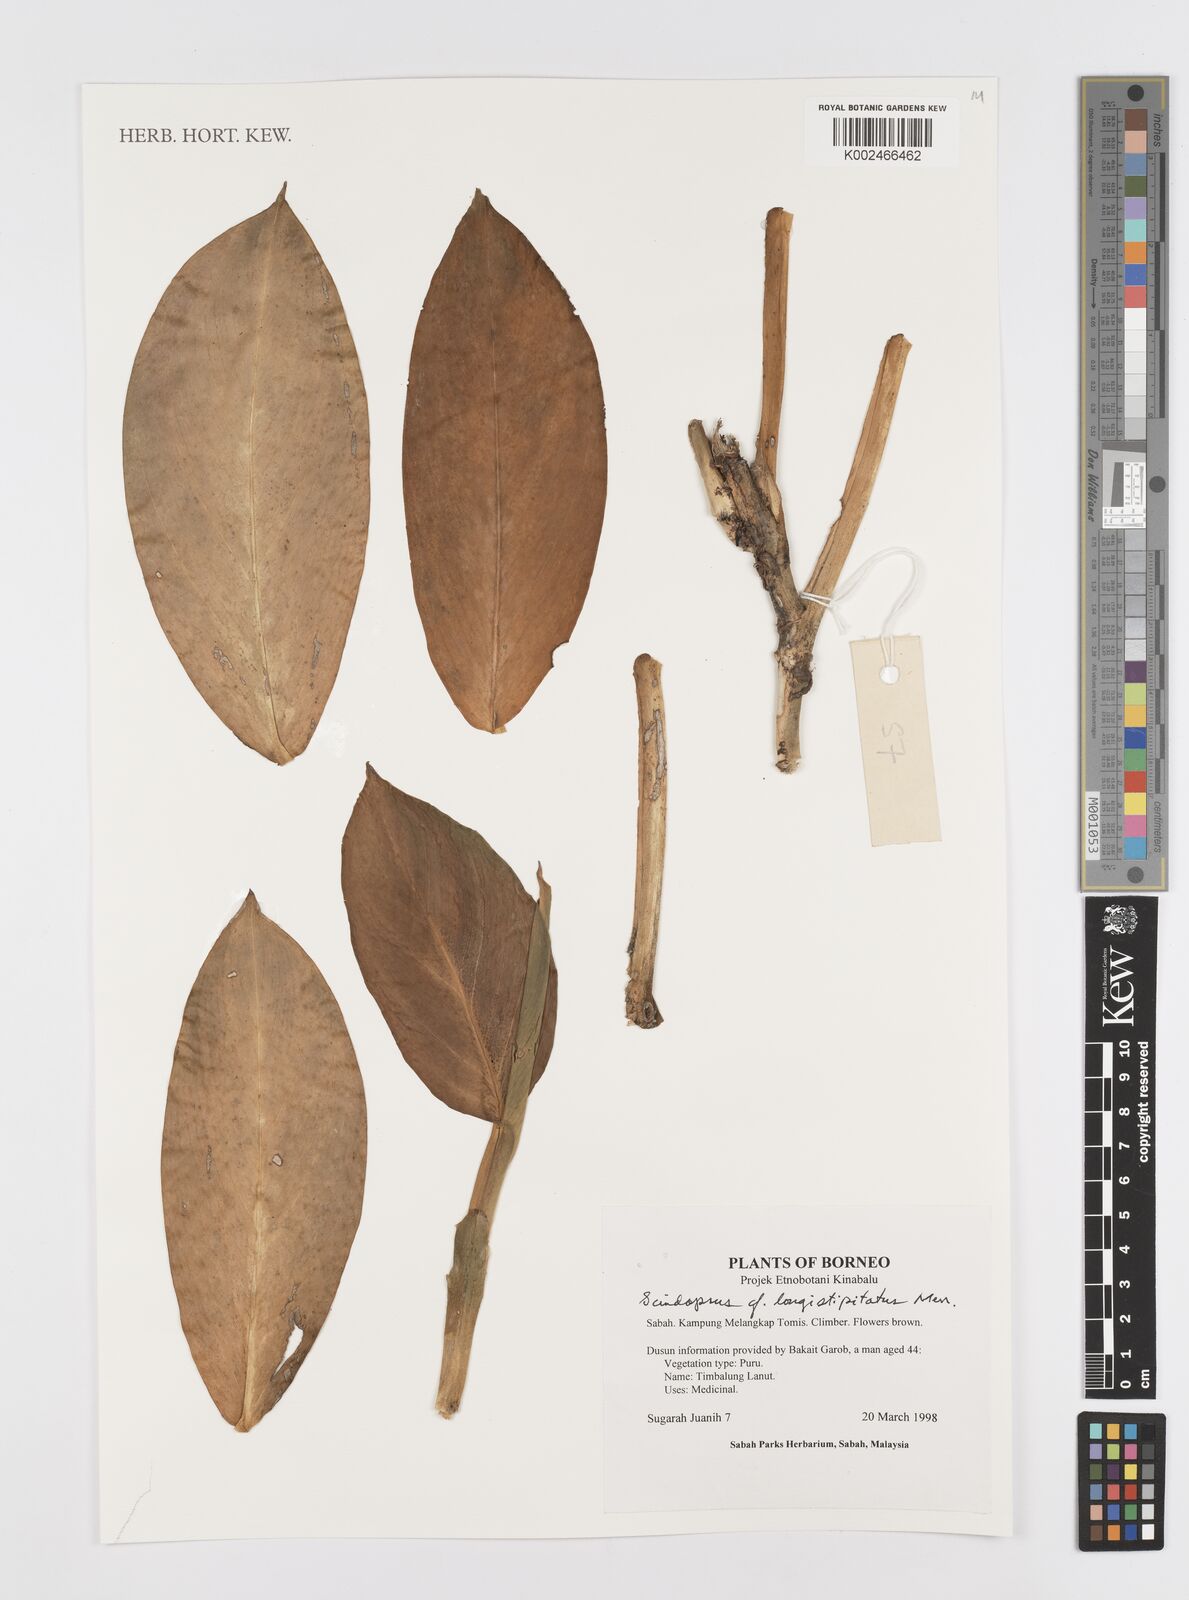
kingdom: Plantae
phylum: Tracheophyta
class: Liliopsida
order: Alismatales
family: Araceae
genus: Scindapsus
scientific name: Scindapsus longistipitatus
